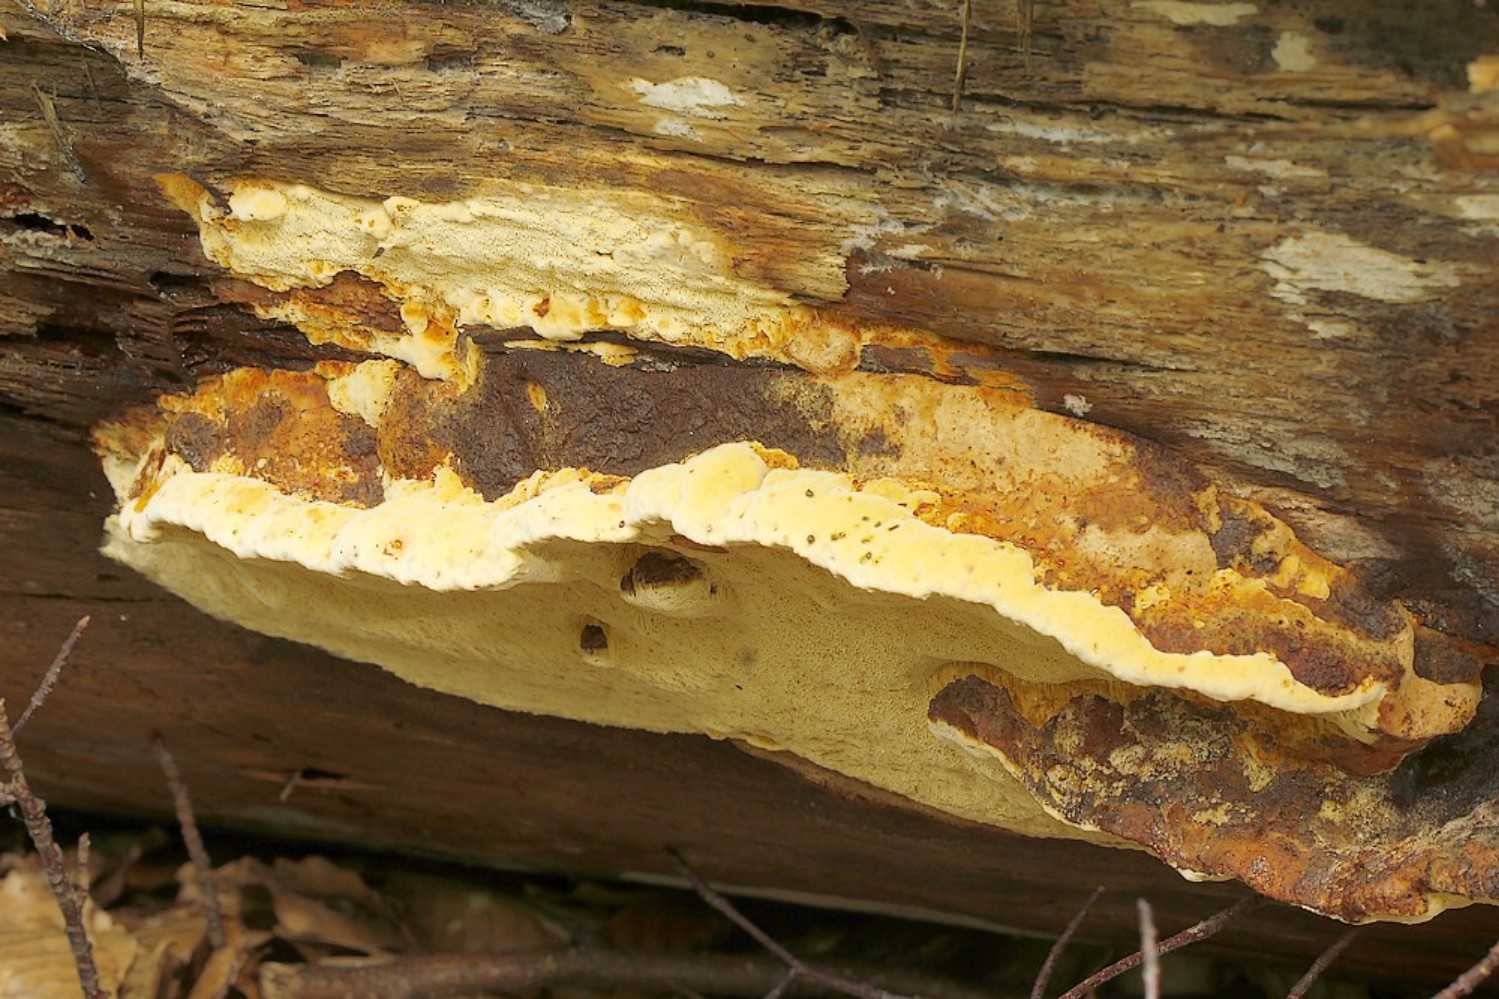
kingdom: Fungi
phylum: Basidiomycota
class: Agaricomycetes
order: Gloeophyllales
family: Gloeophyllaceae
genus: Gloeophyllum
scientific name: Gloeophyllum odoratum
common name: duftende korkhat
